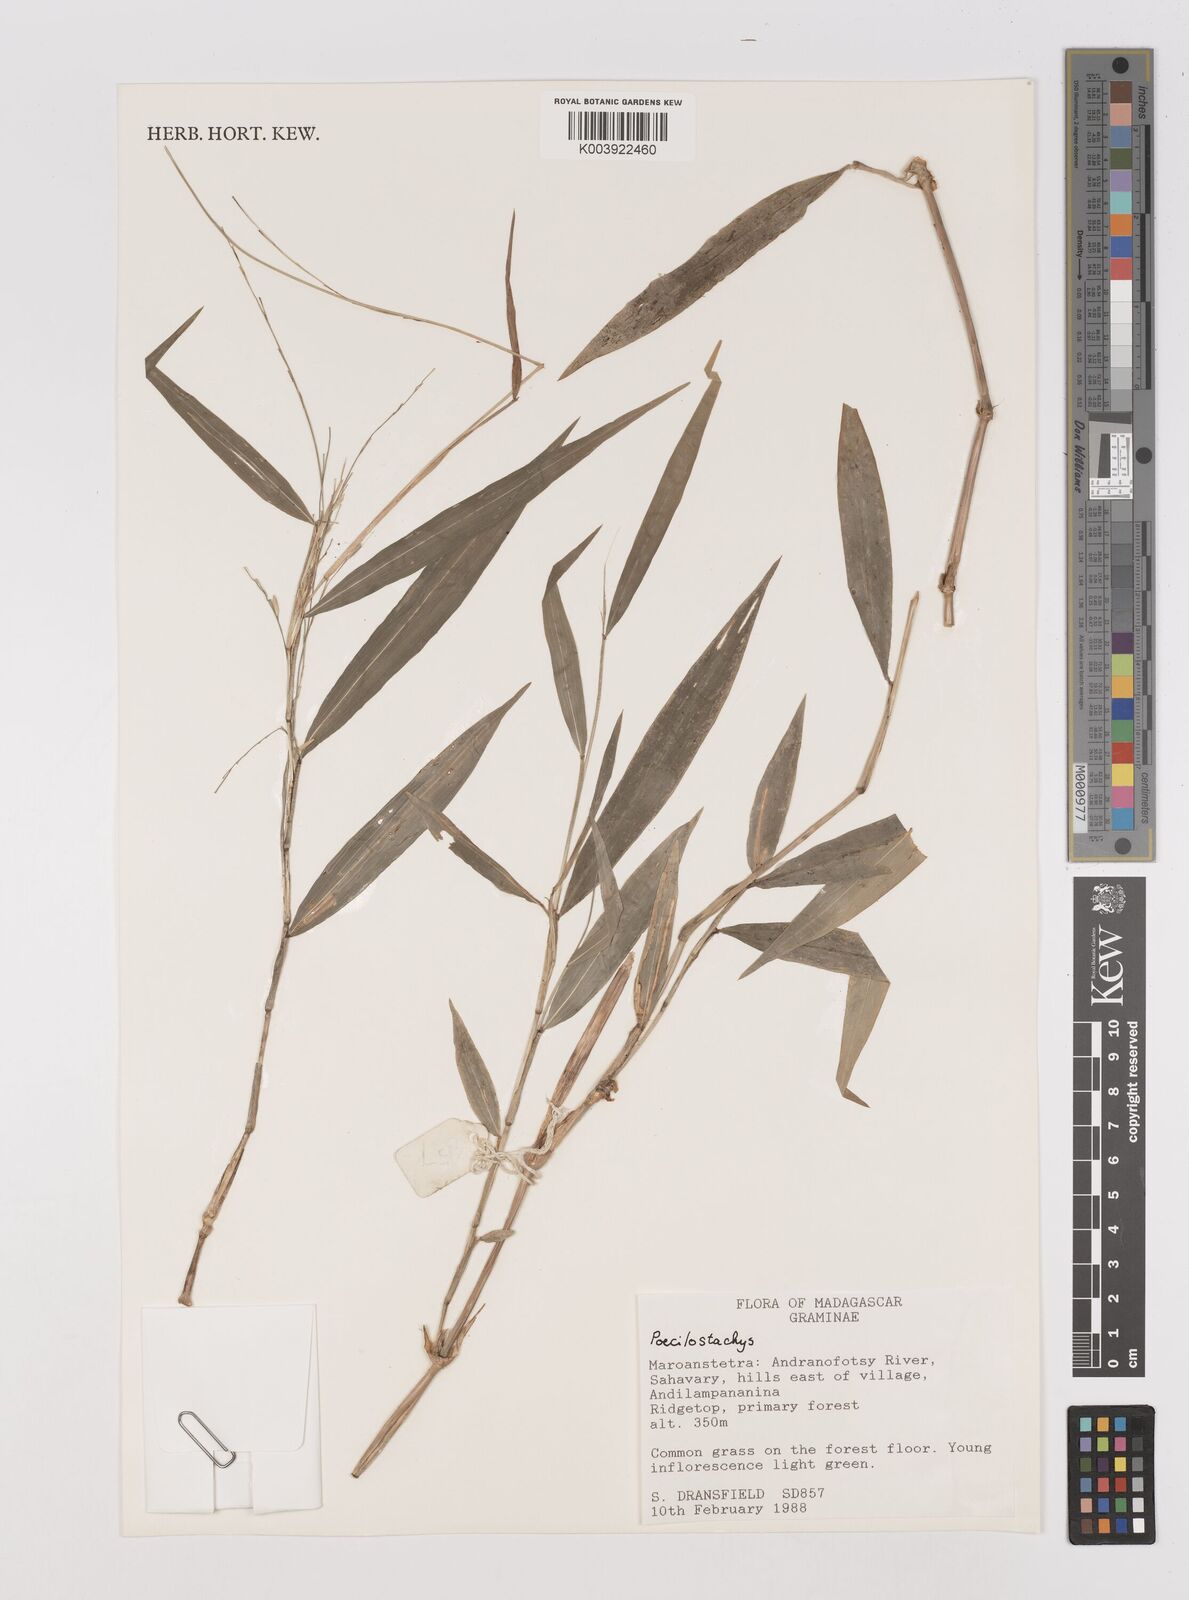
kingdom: Plantae
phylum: Tracheophyta
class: Liliopsida
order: Poales
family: Poaceae
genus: Poecilostachys
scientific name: Poecilostachys baronis
